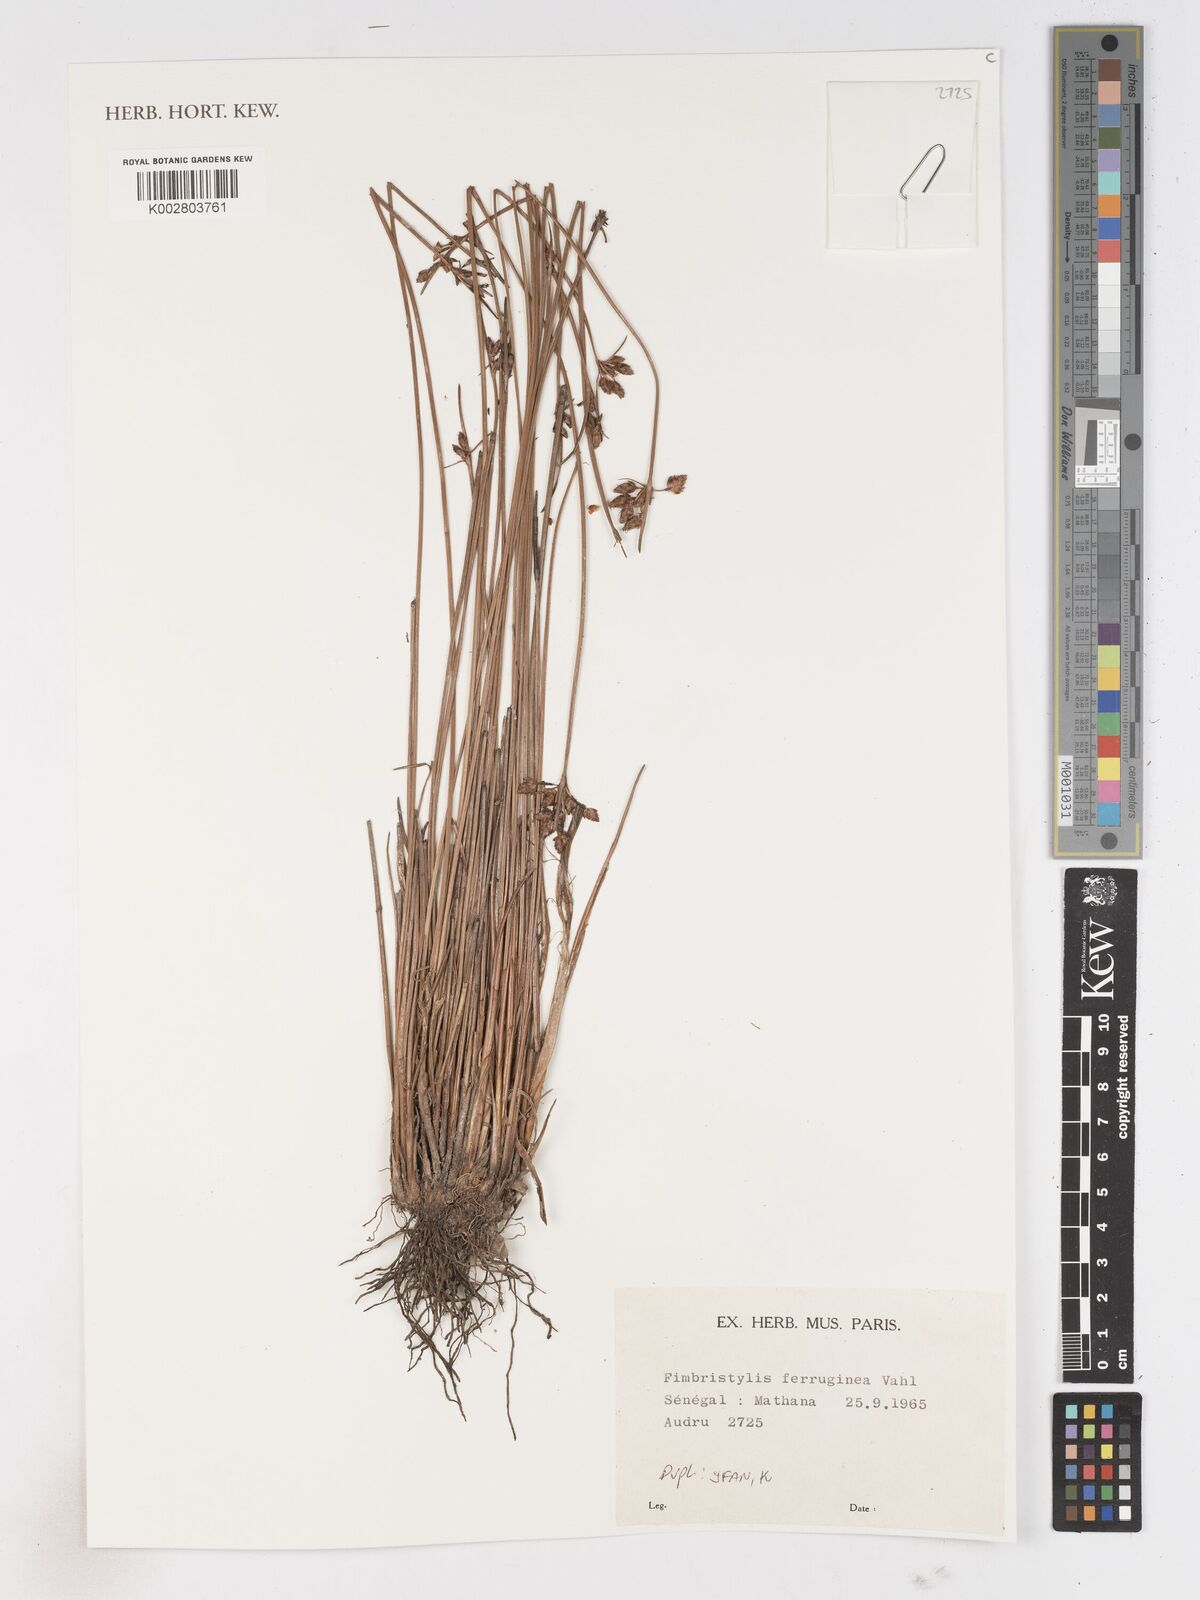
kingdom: Plantae
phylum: Tracheophyta
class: Liliopsida
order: Poales
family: Cyperaceae
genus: Fimbristylis
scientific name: Fimbristylis ferruginea
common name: West indian fimbry
